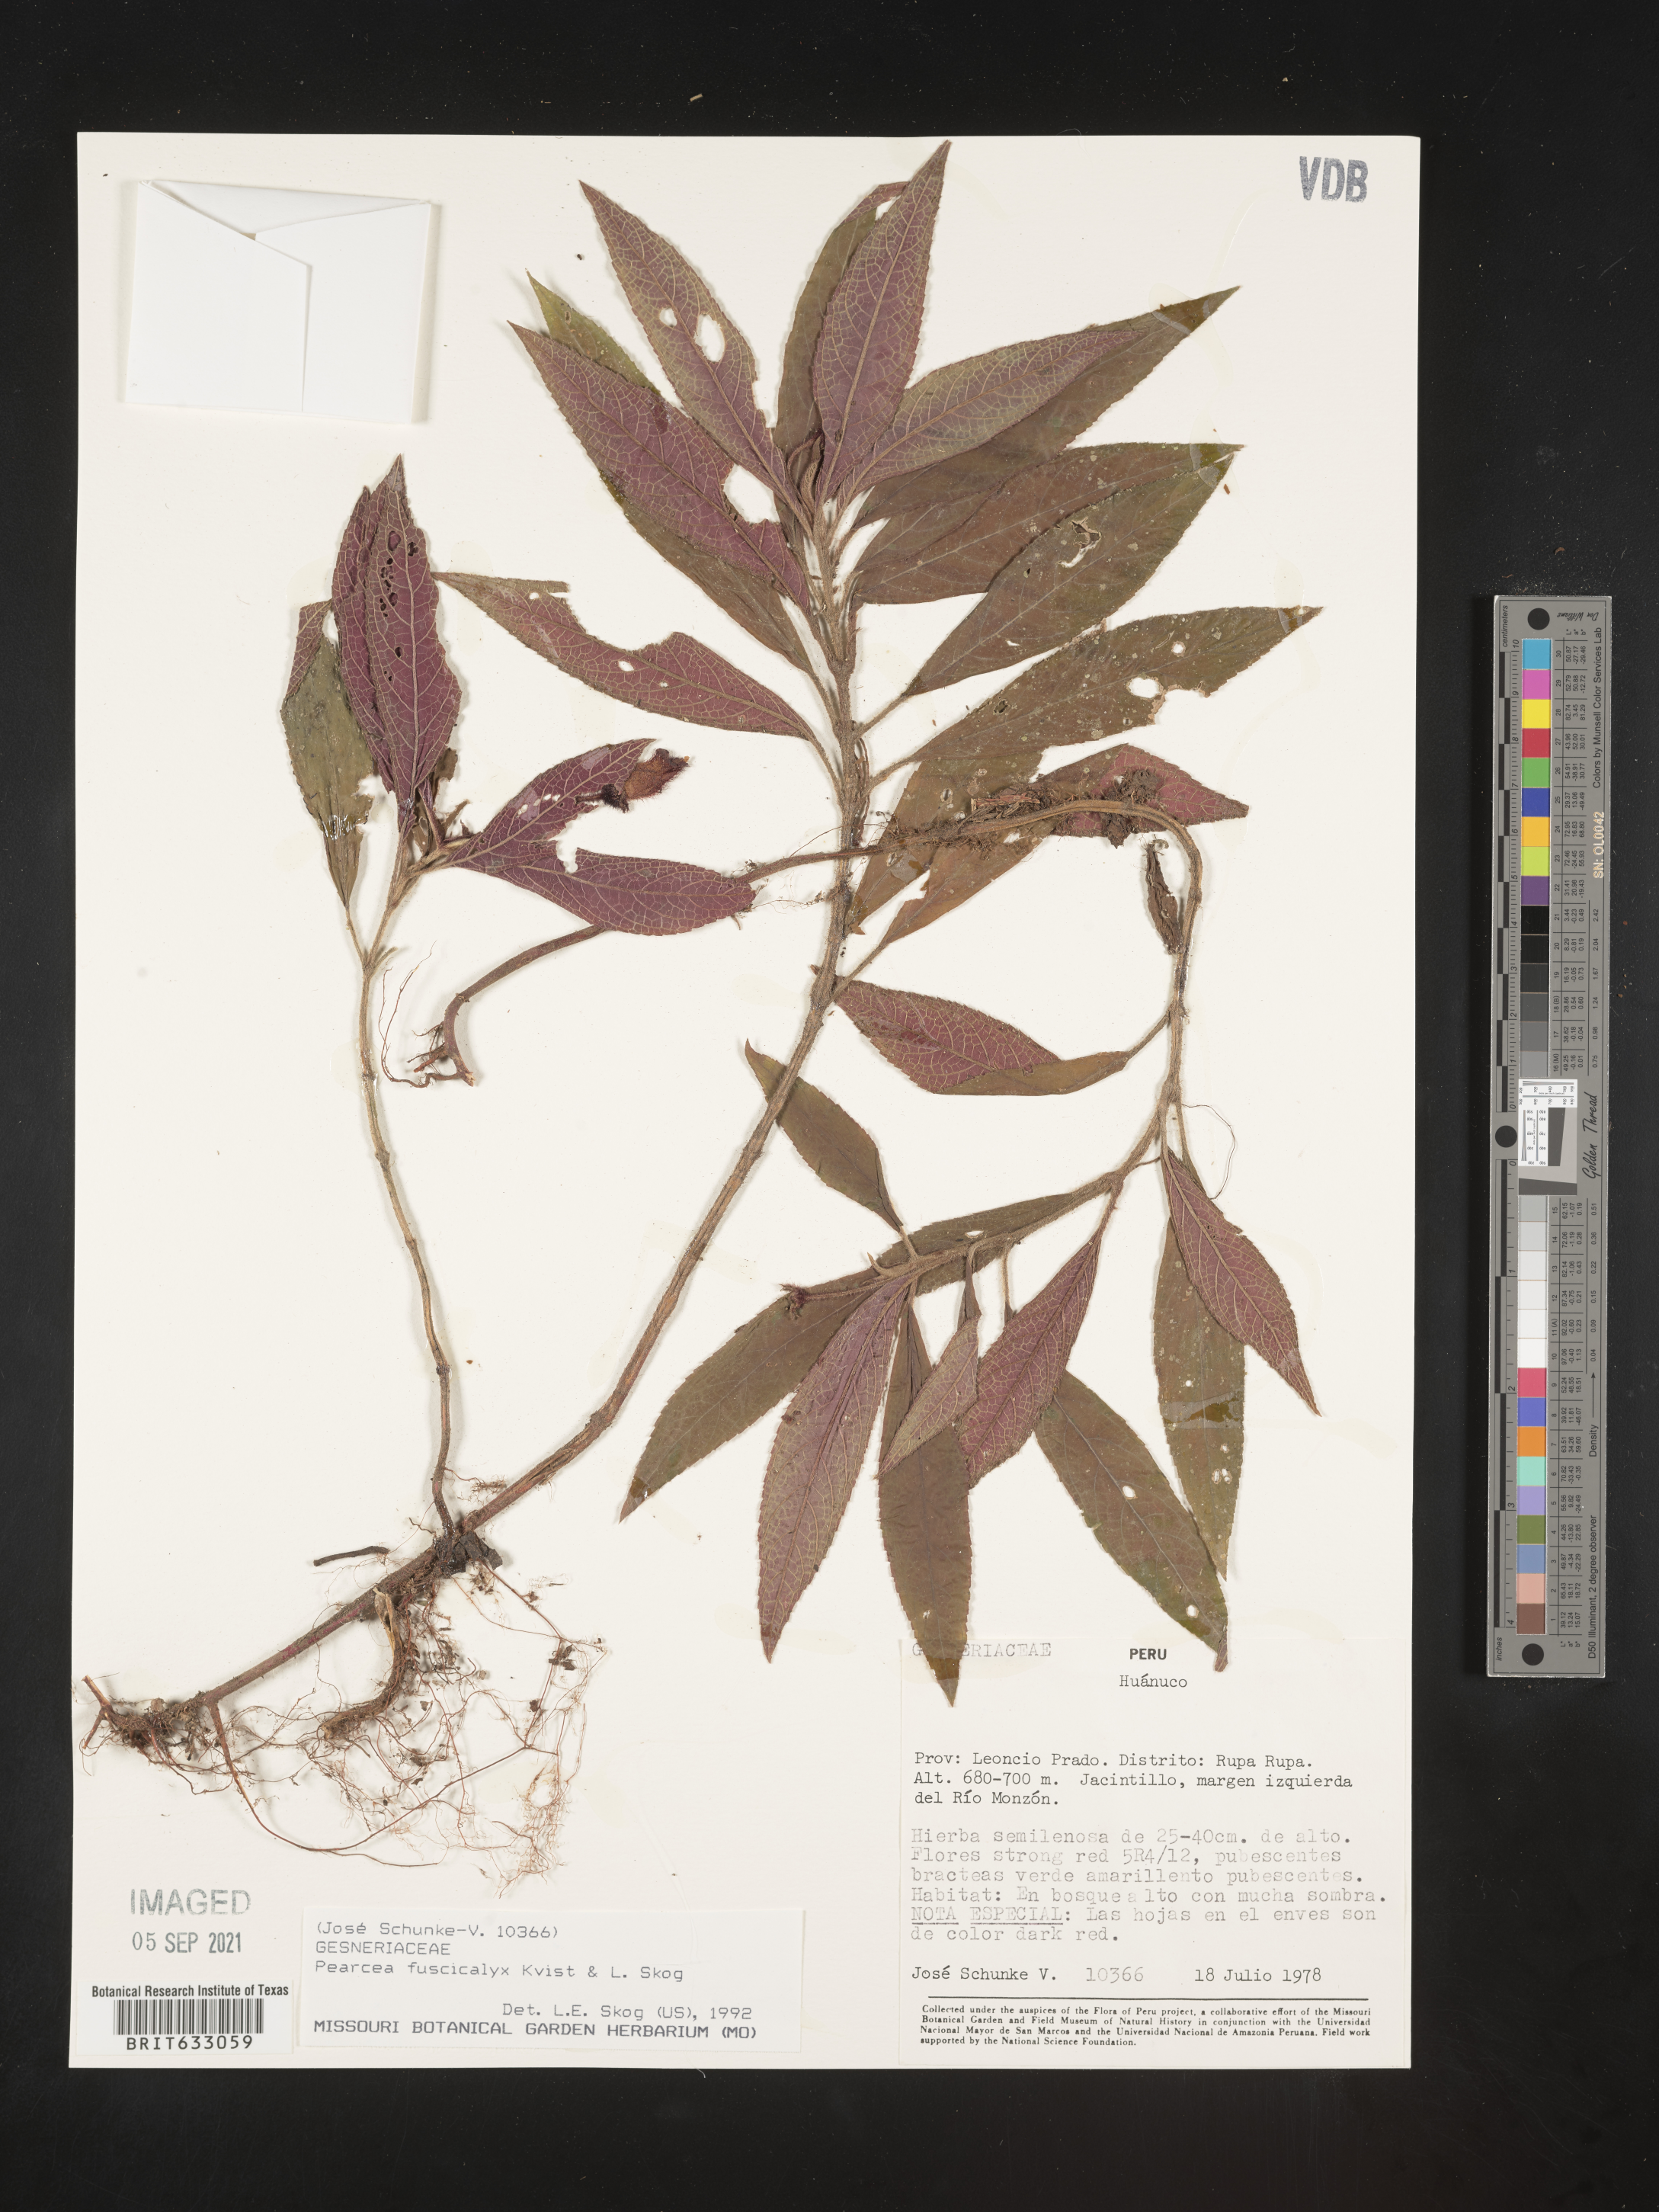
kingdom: Plantae
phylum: Tracheophyta
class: Magnoliopsida
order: Lamiales
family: Gesneriaceae
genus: Pearcea
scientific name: Pearcea
